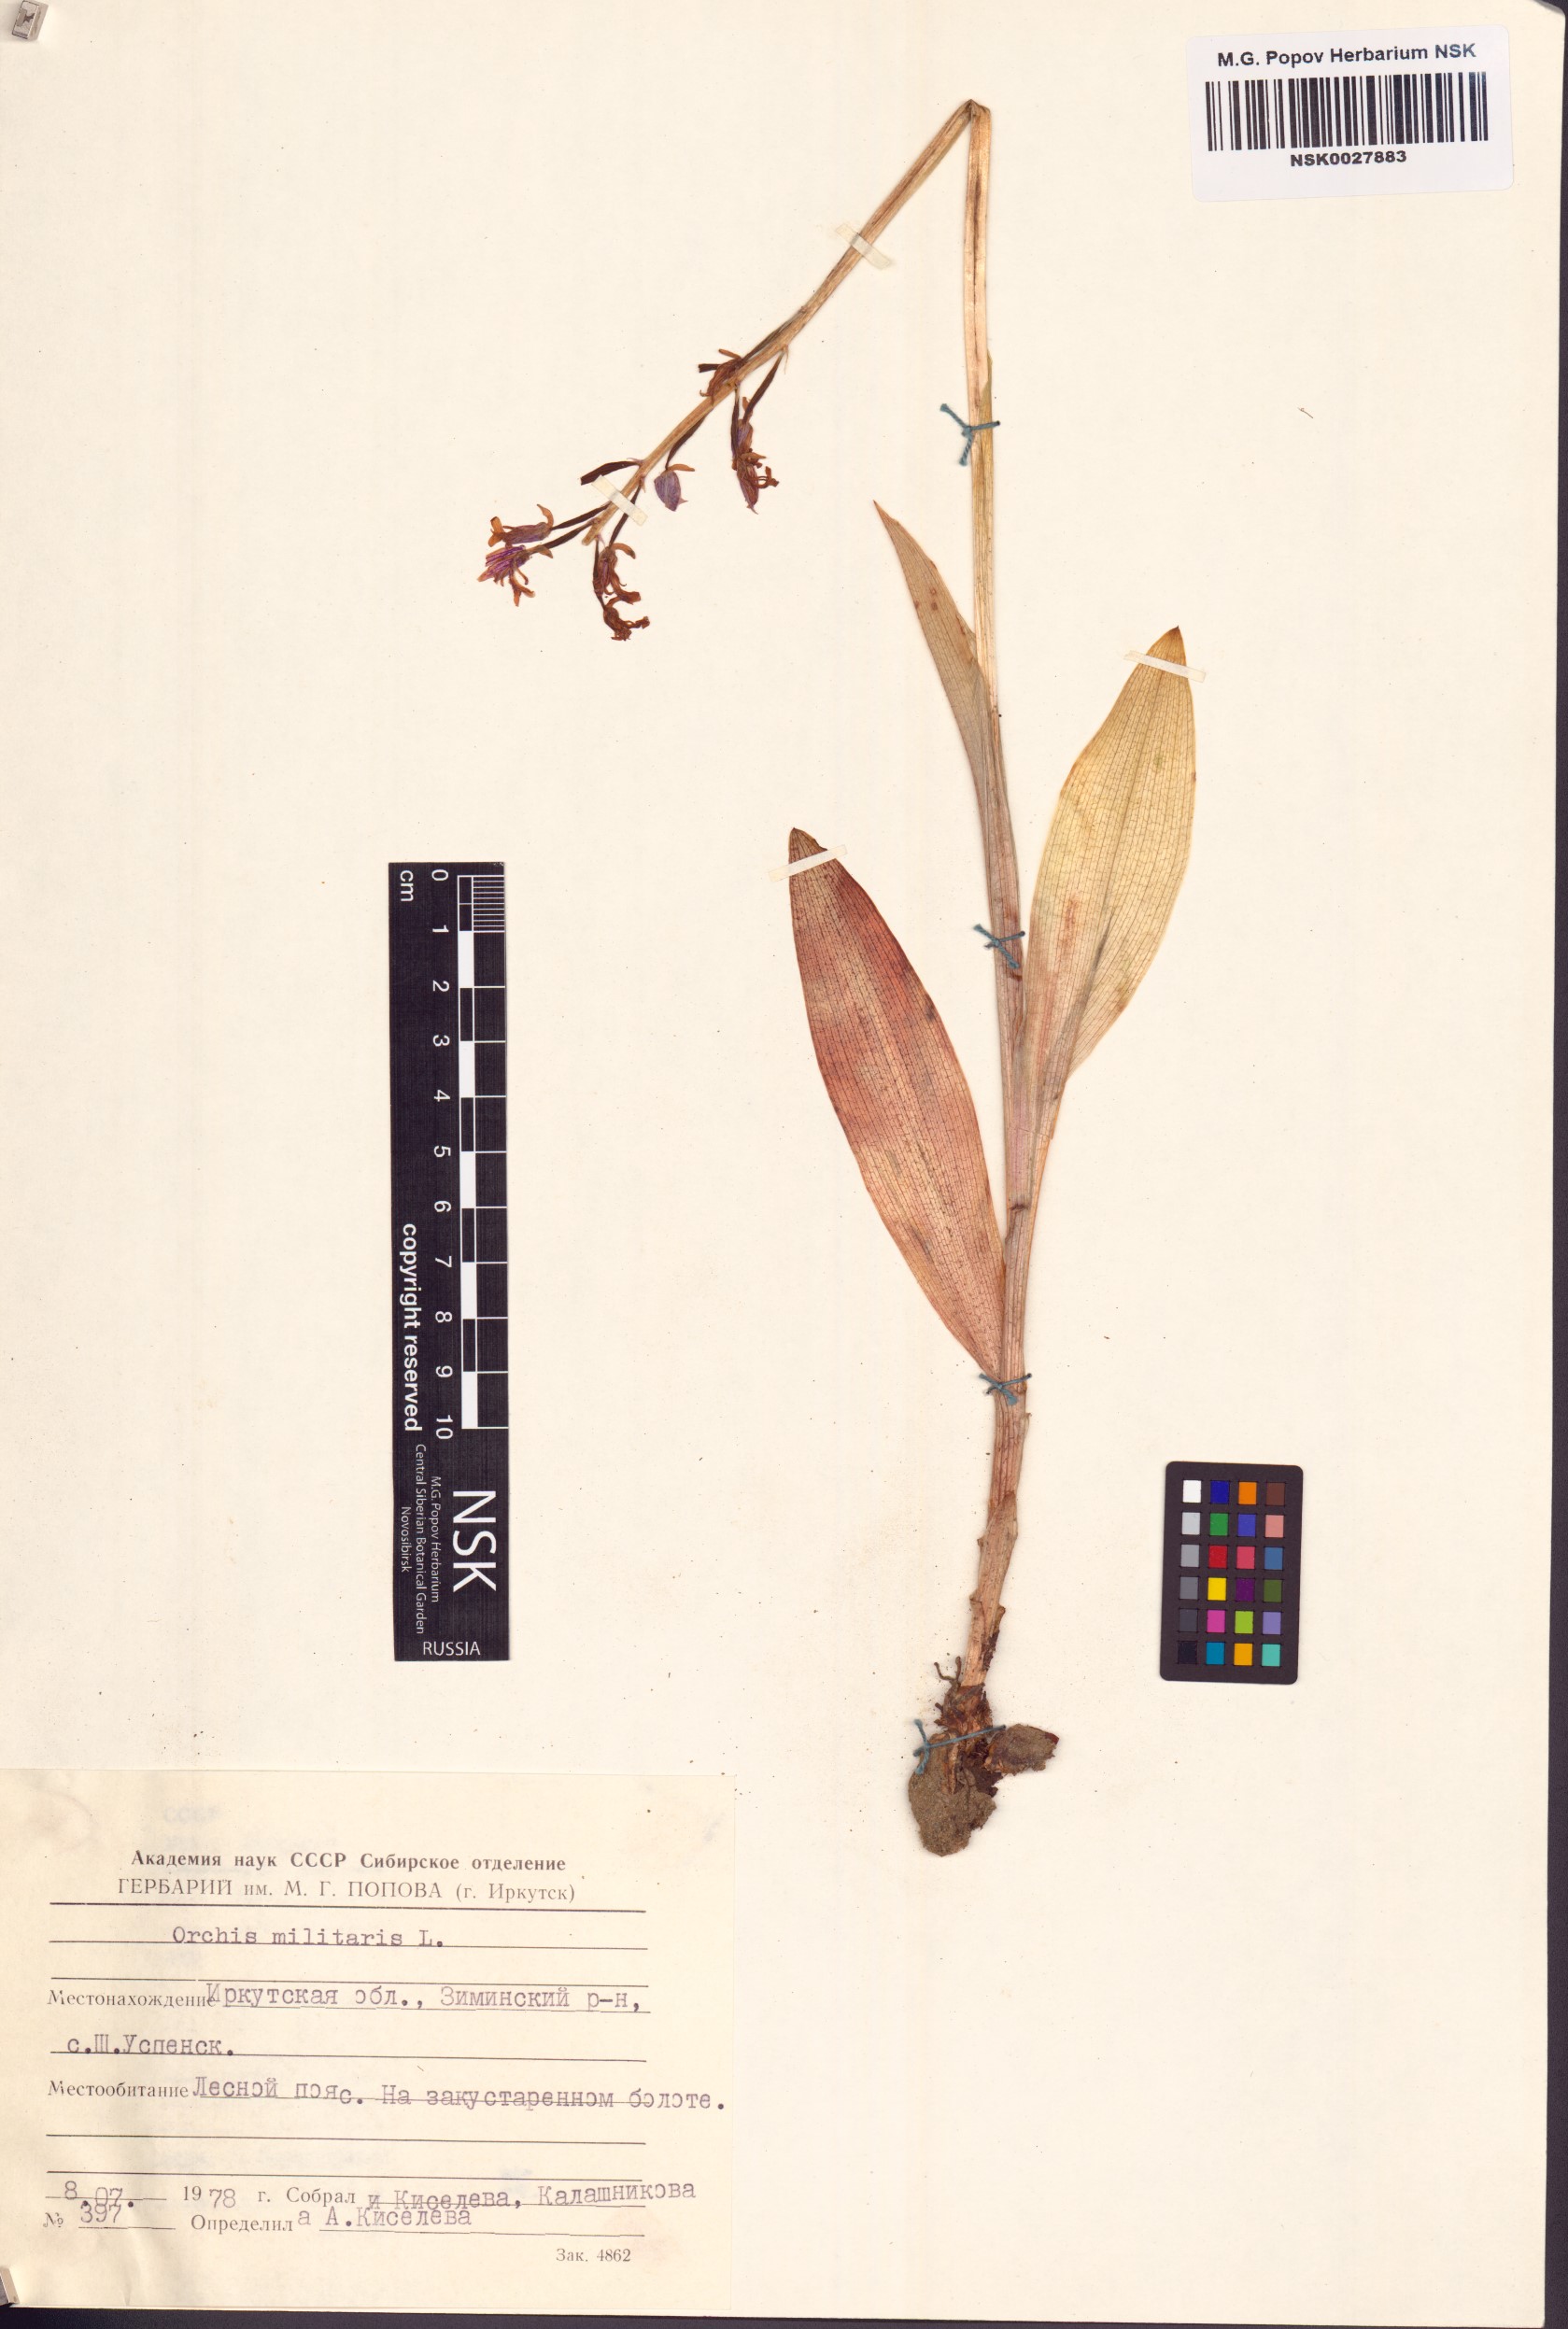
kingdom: Plantae
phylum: Tracheophyta
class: Liliopsida
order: Asparagales
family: Orchidaceae
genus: Orchis
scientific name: Orchis militaris
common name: Military orchid
